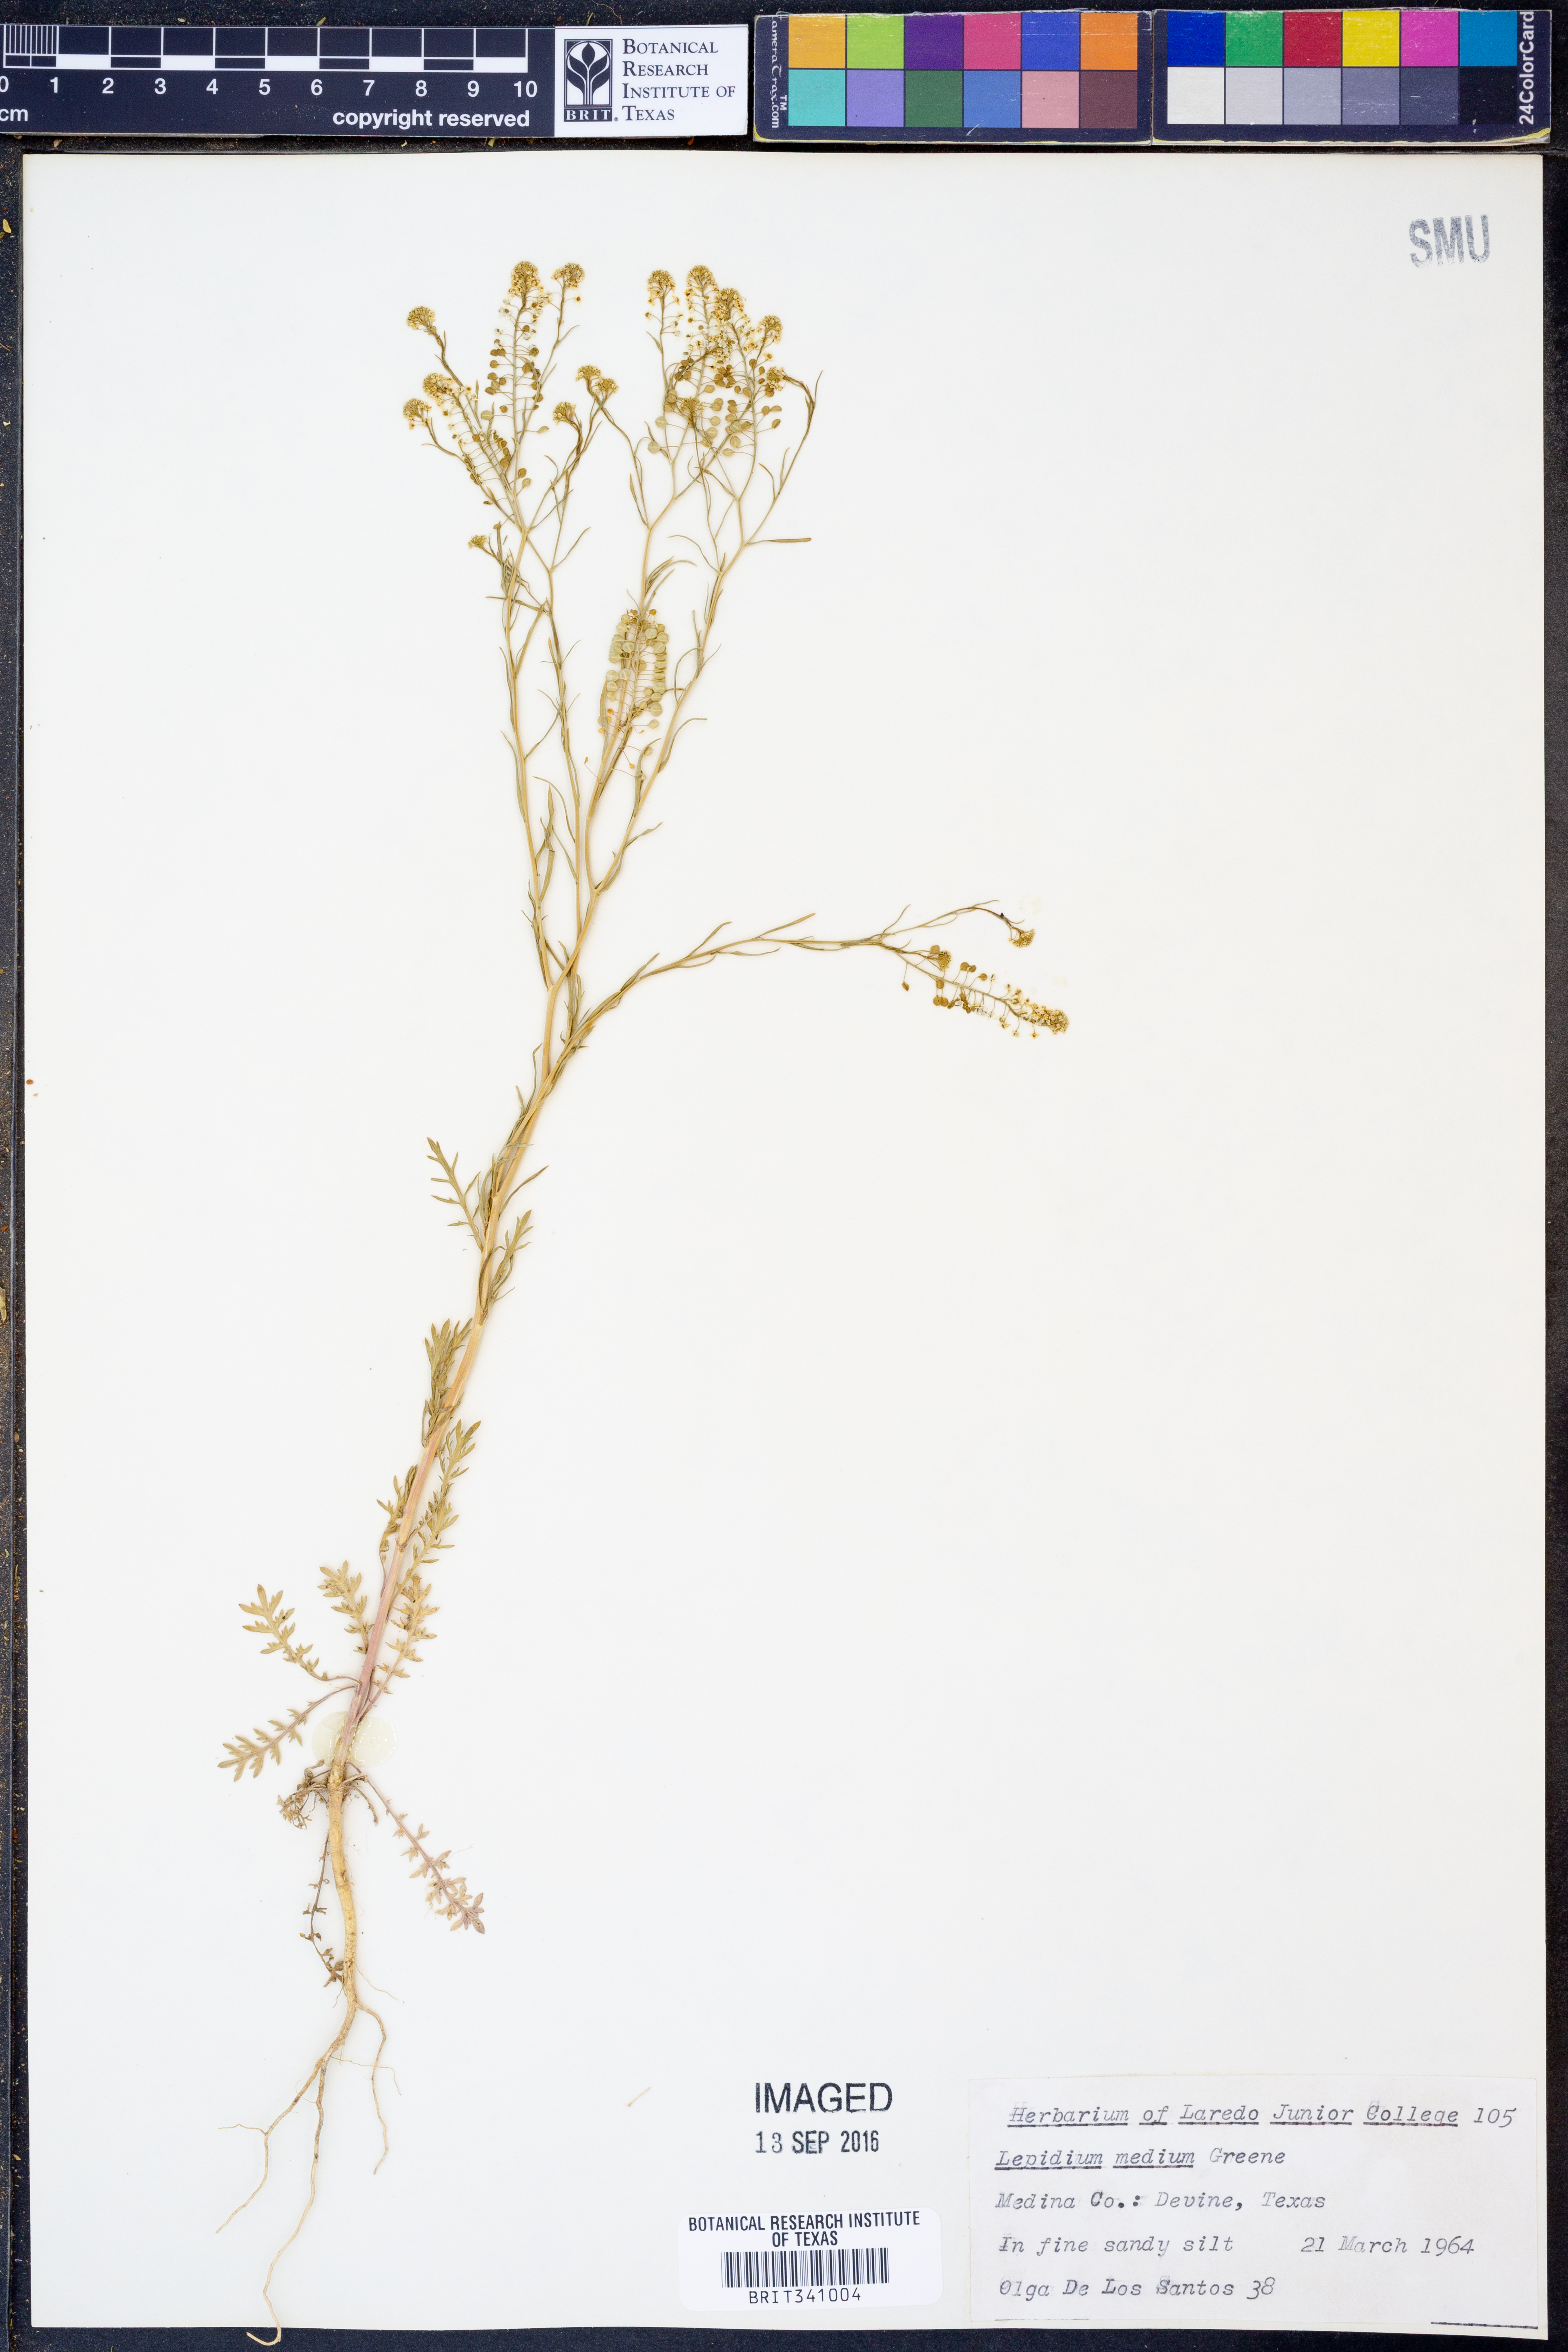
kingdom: Plantae
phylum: Tracheophyta
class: Magnoliopsida
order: Brassicales
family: Brassicaceae
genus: Lepidium
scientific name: Lepidium virginicum
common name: Least pepperwort
